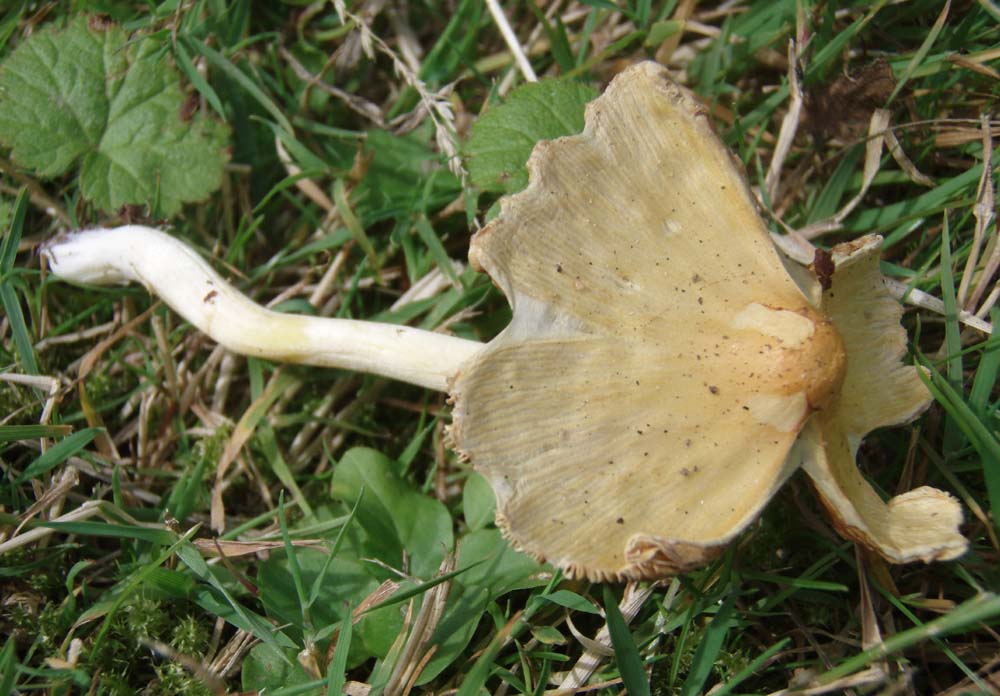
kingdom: Fungi
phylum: Basidiomycota
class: Agaricomycetes
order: Agaricales
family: Bolbitiaceae
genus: Bolbitius
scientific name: Bolbitius titubans
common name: almindelig gulhat
